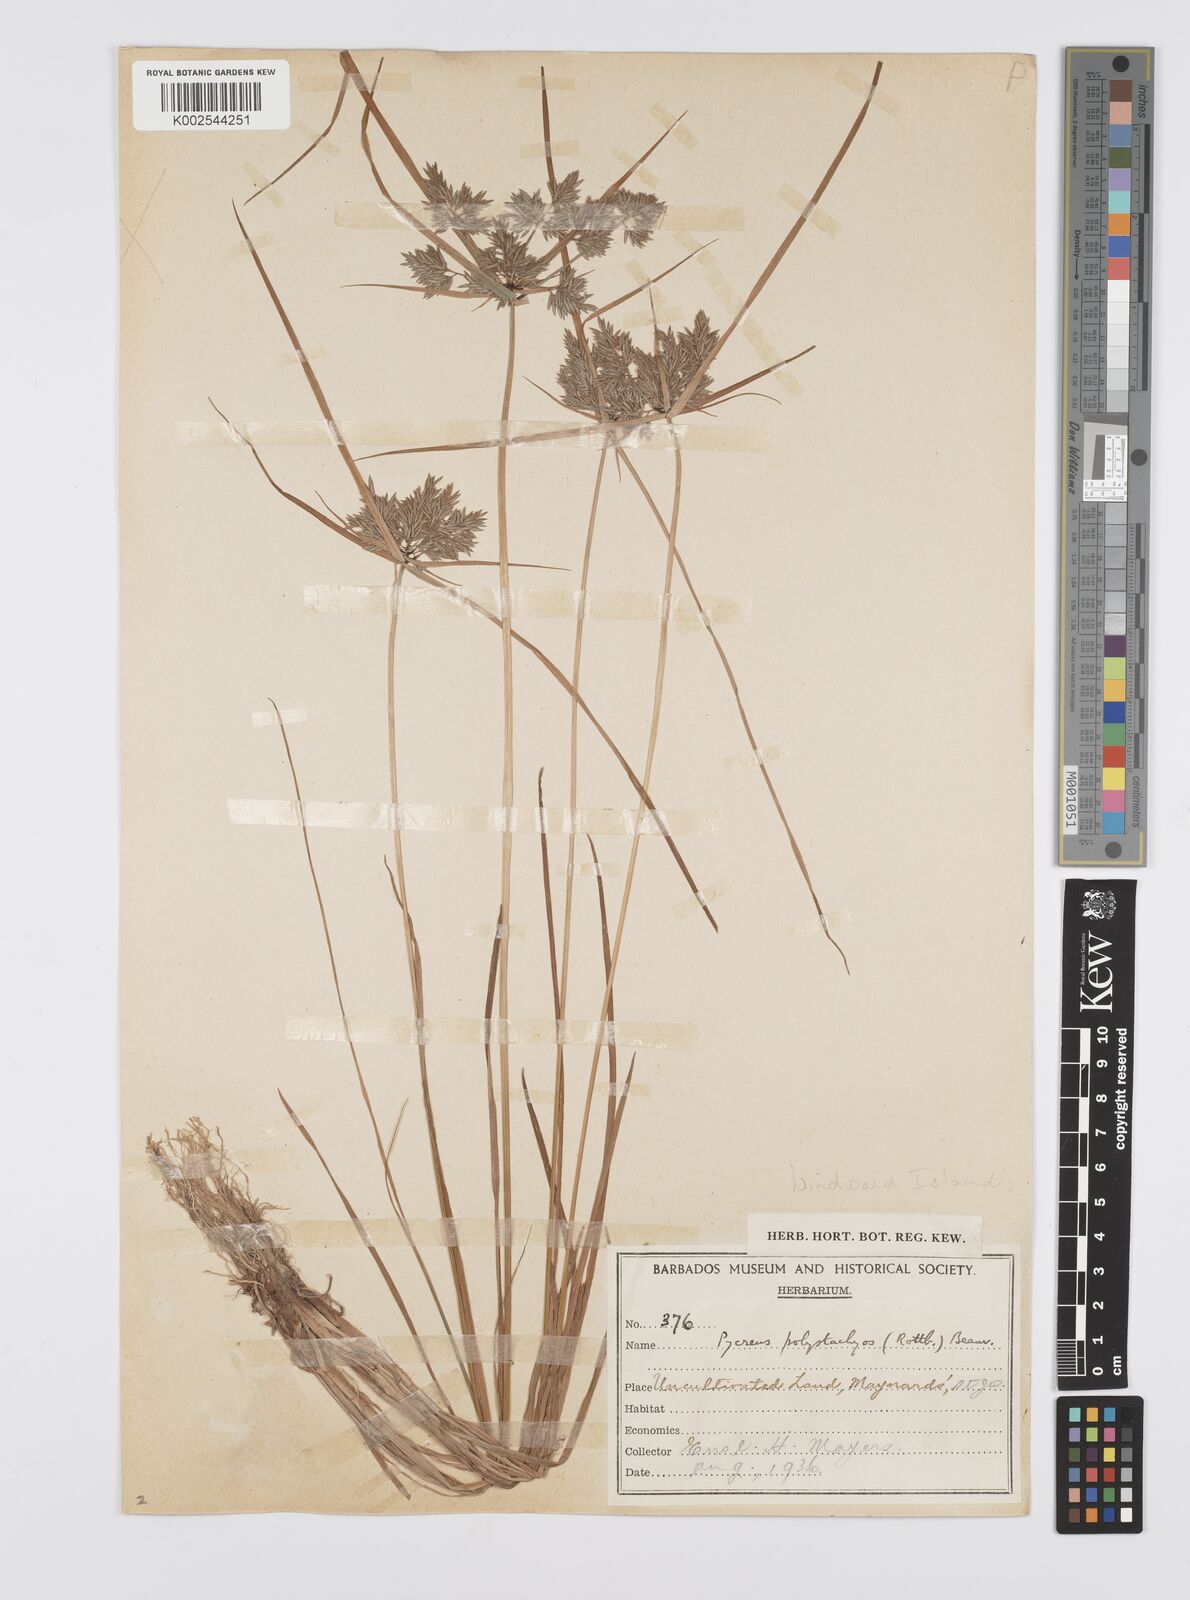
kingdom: Plantae
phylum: Tracheophyta
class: Liliopsida
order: Poales
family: Cyperaceae
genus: Cyperus
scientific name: Cyperus polystachyos
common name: Bunchy flat sedge
